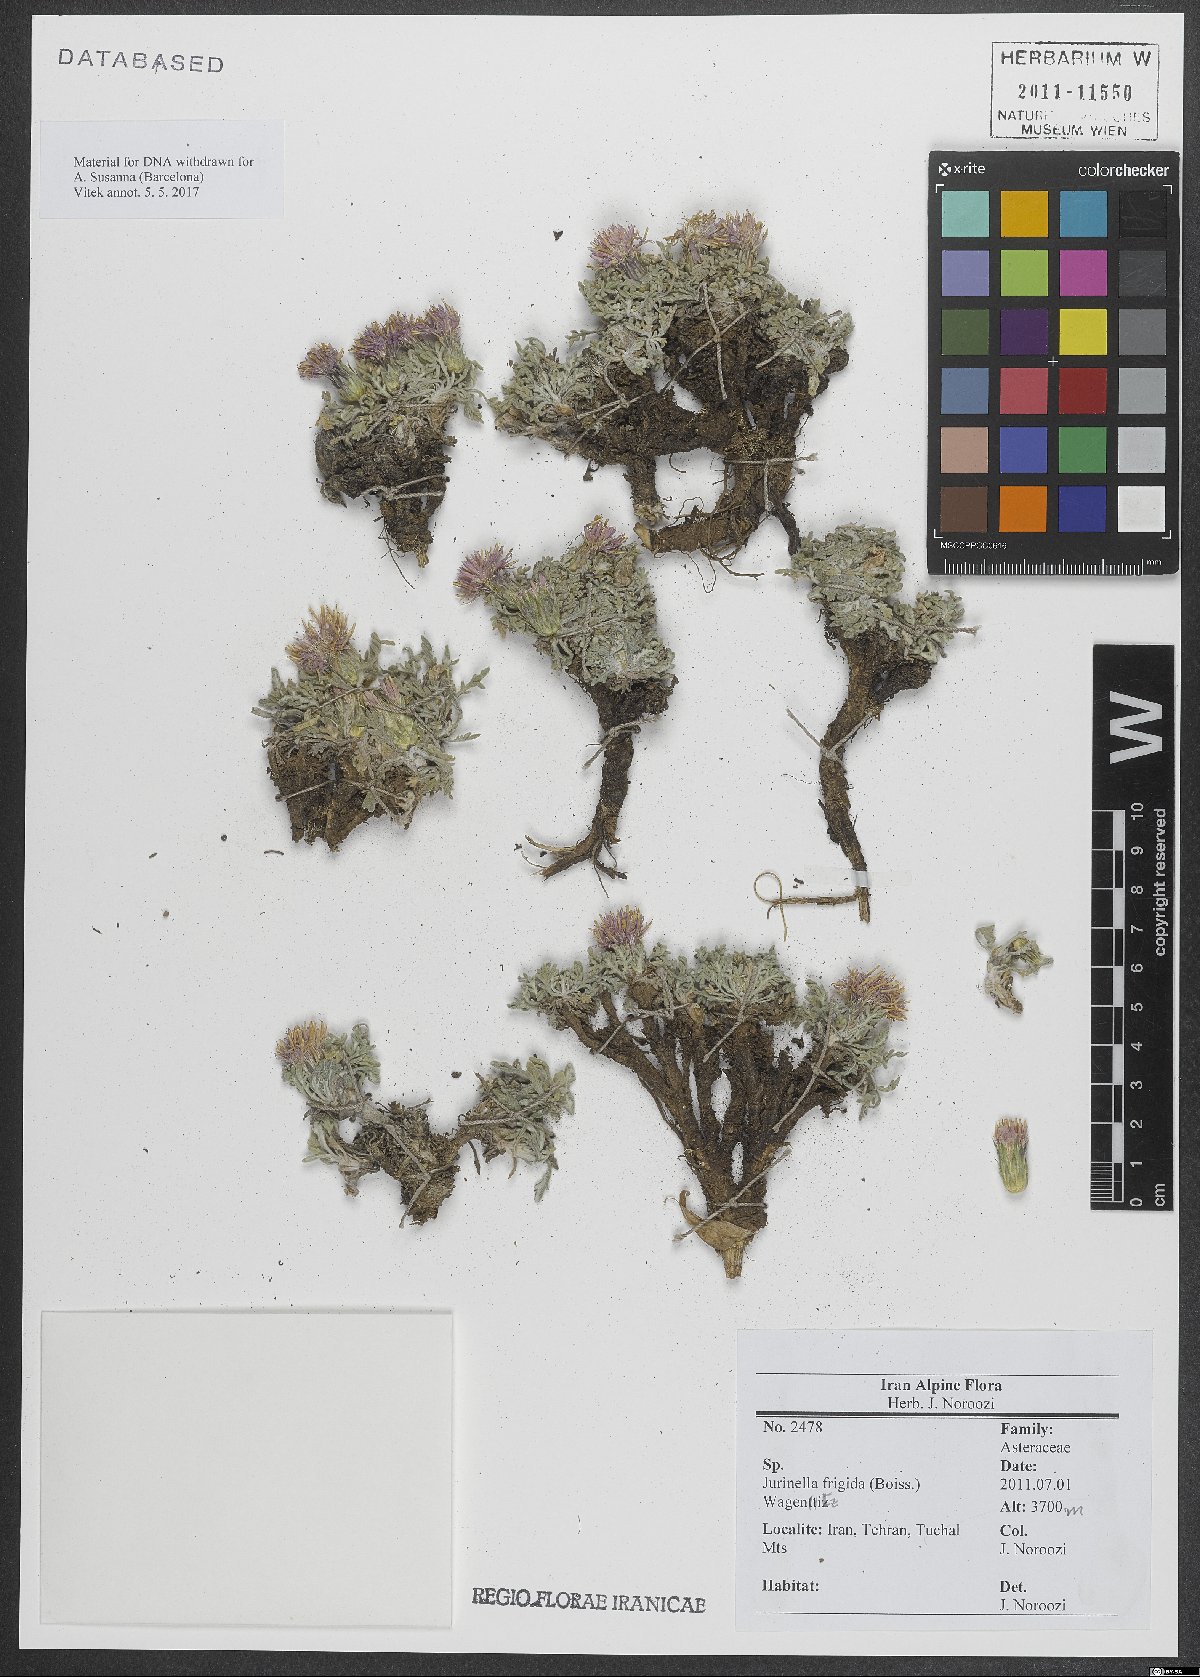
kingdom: Plantae
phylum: Tracheophyta
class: Magnoliopsida
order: Asterales
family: Asteraceae
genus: Jurinea
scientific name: Jurinea frigida
